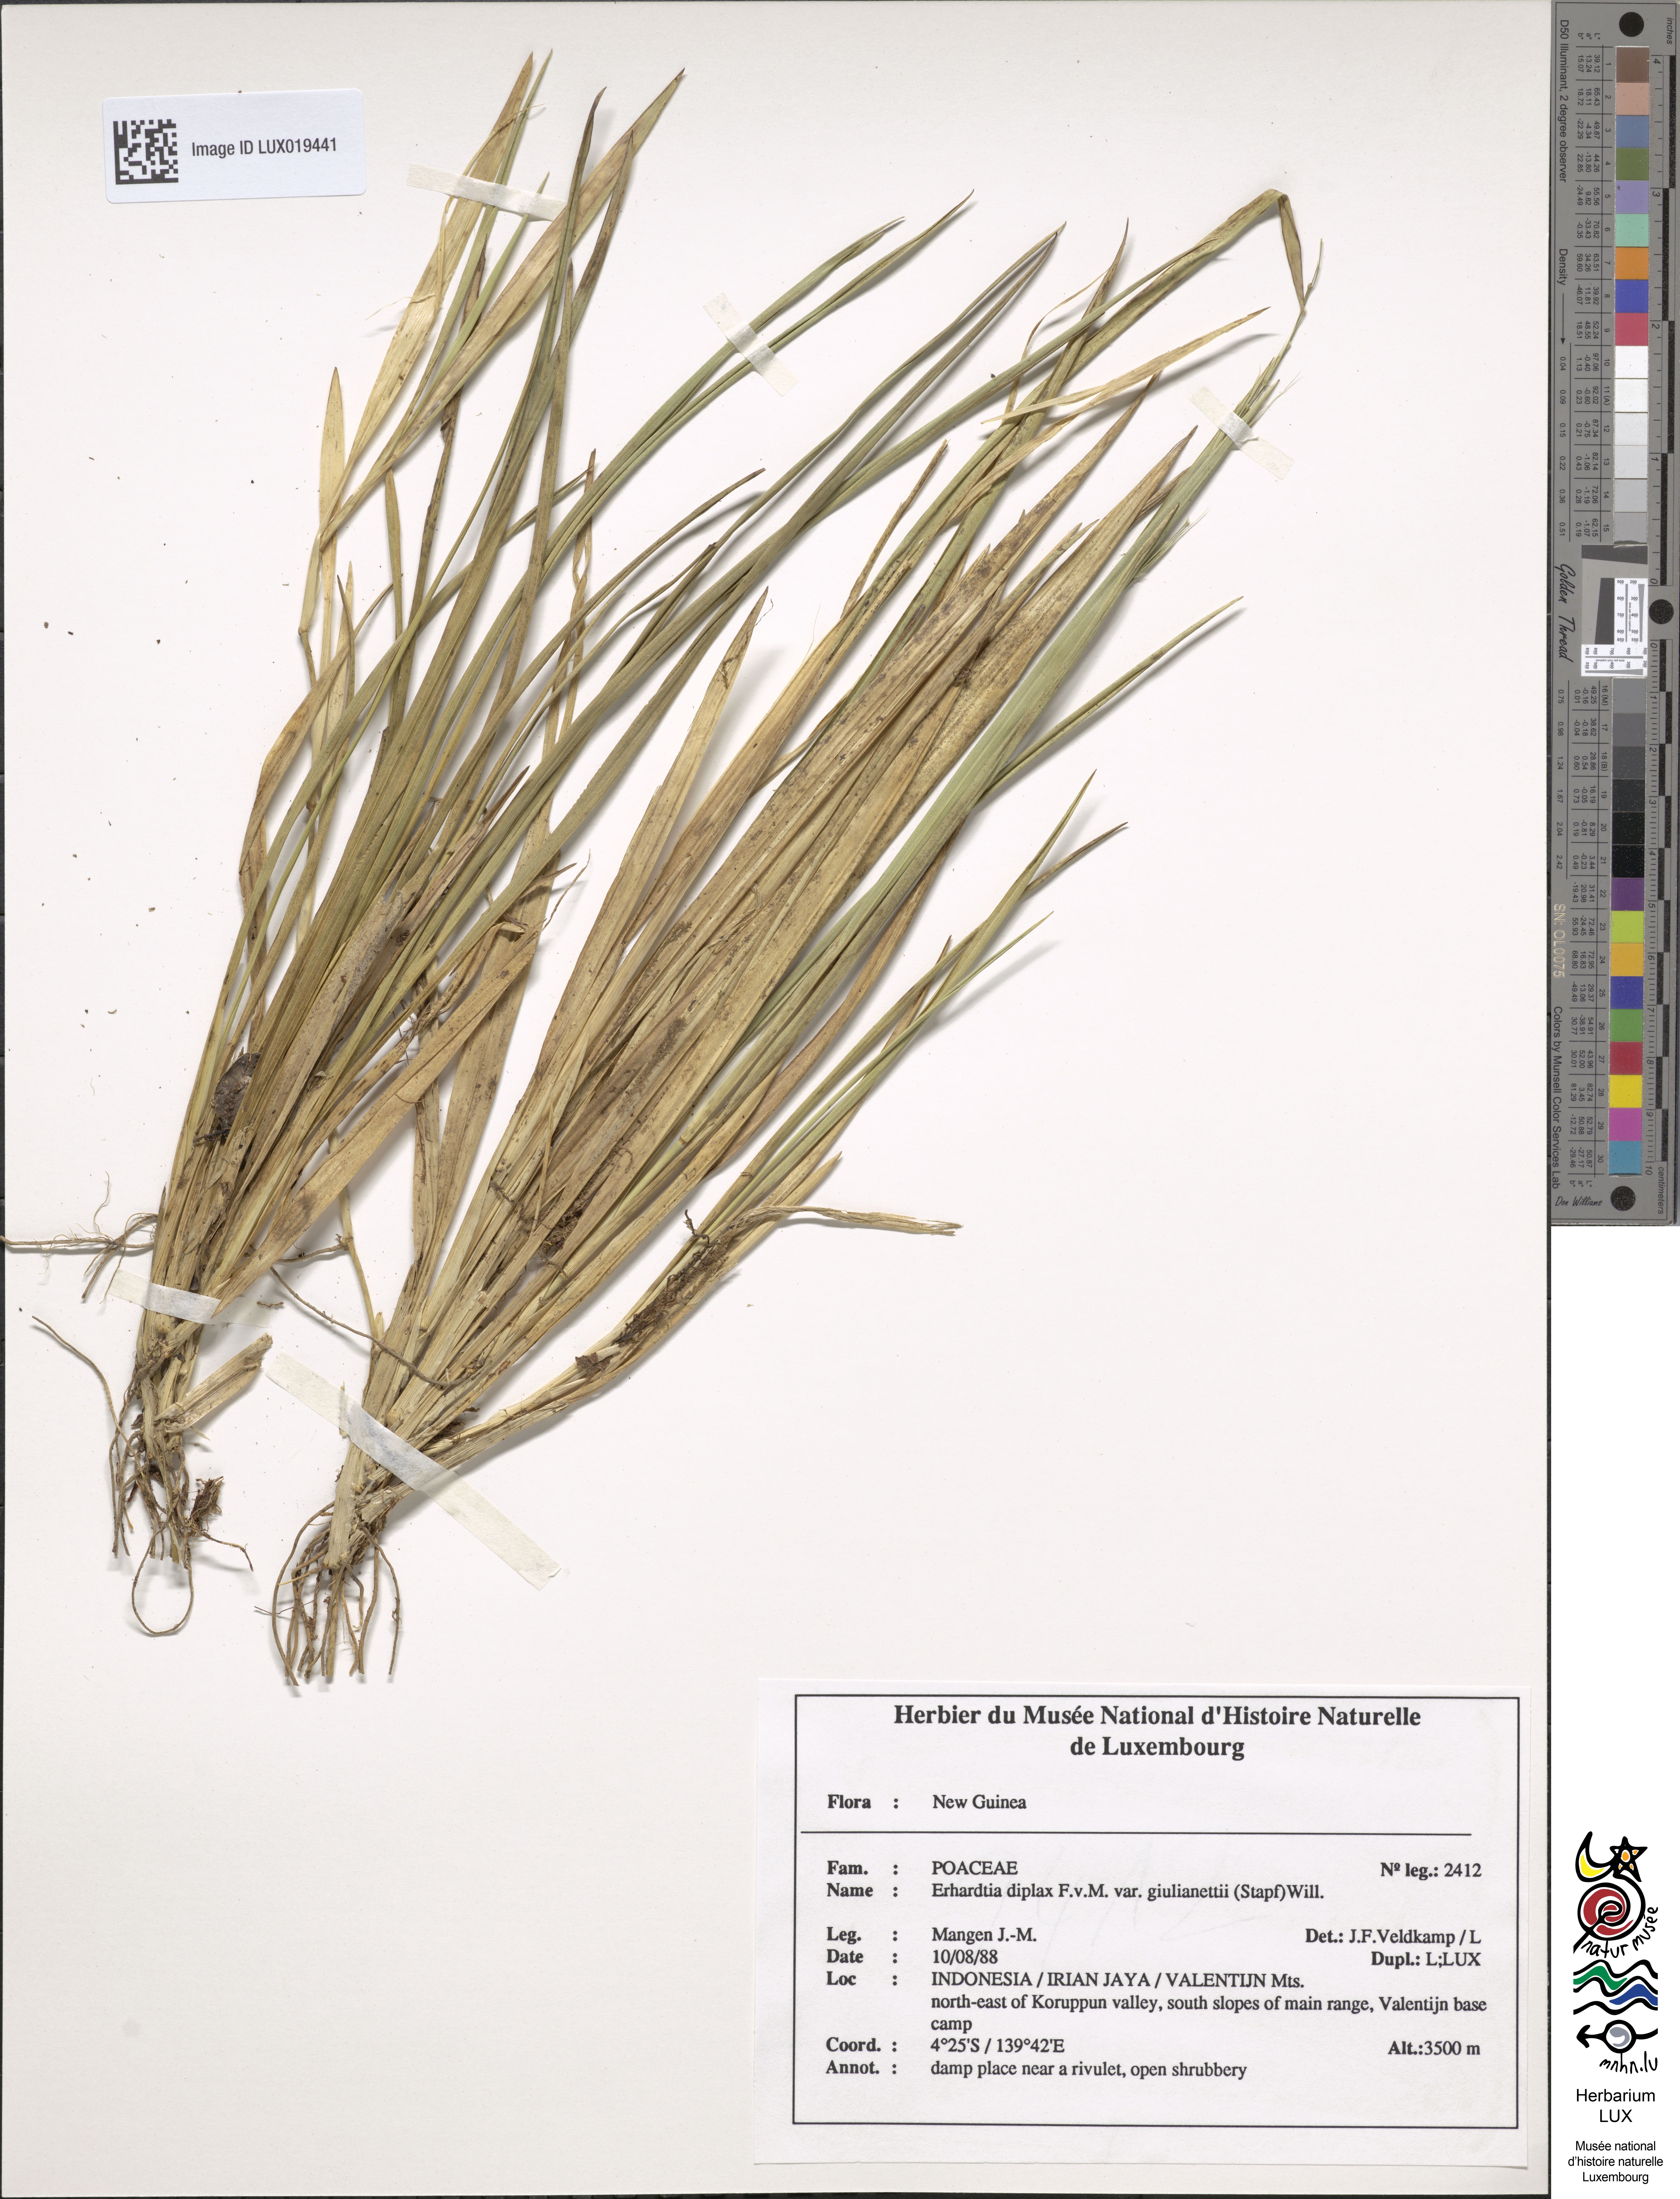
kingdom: Plantae
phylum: Tracheophyta
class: Liliopsida
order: Poales
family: Poaceae
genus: Ehrharta
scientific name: Ehrharta diplax
